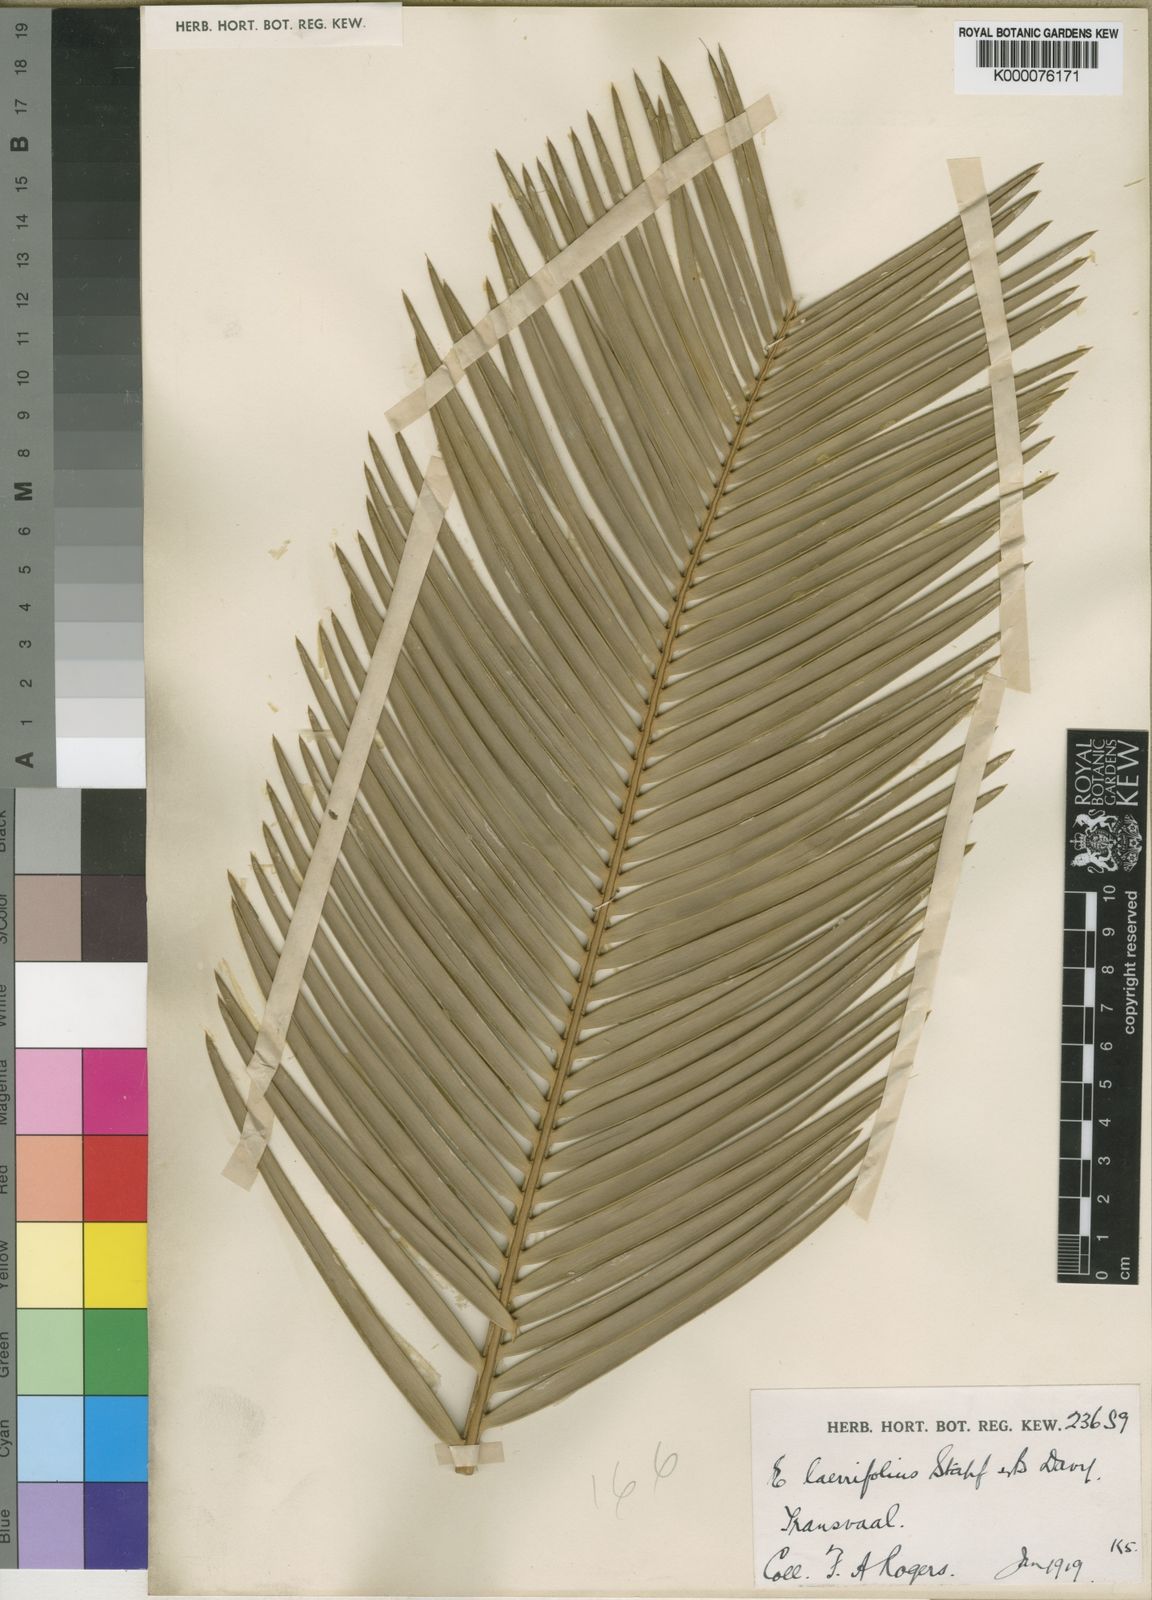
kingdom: Plantae
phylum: Tracheophyta
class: Cycadopsida
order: Cycadales
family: Zamiaceae
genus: Encephalartos
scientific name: Encephalartos laevifolius
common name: Kaapsehoop cycad
